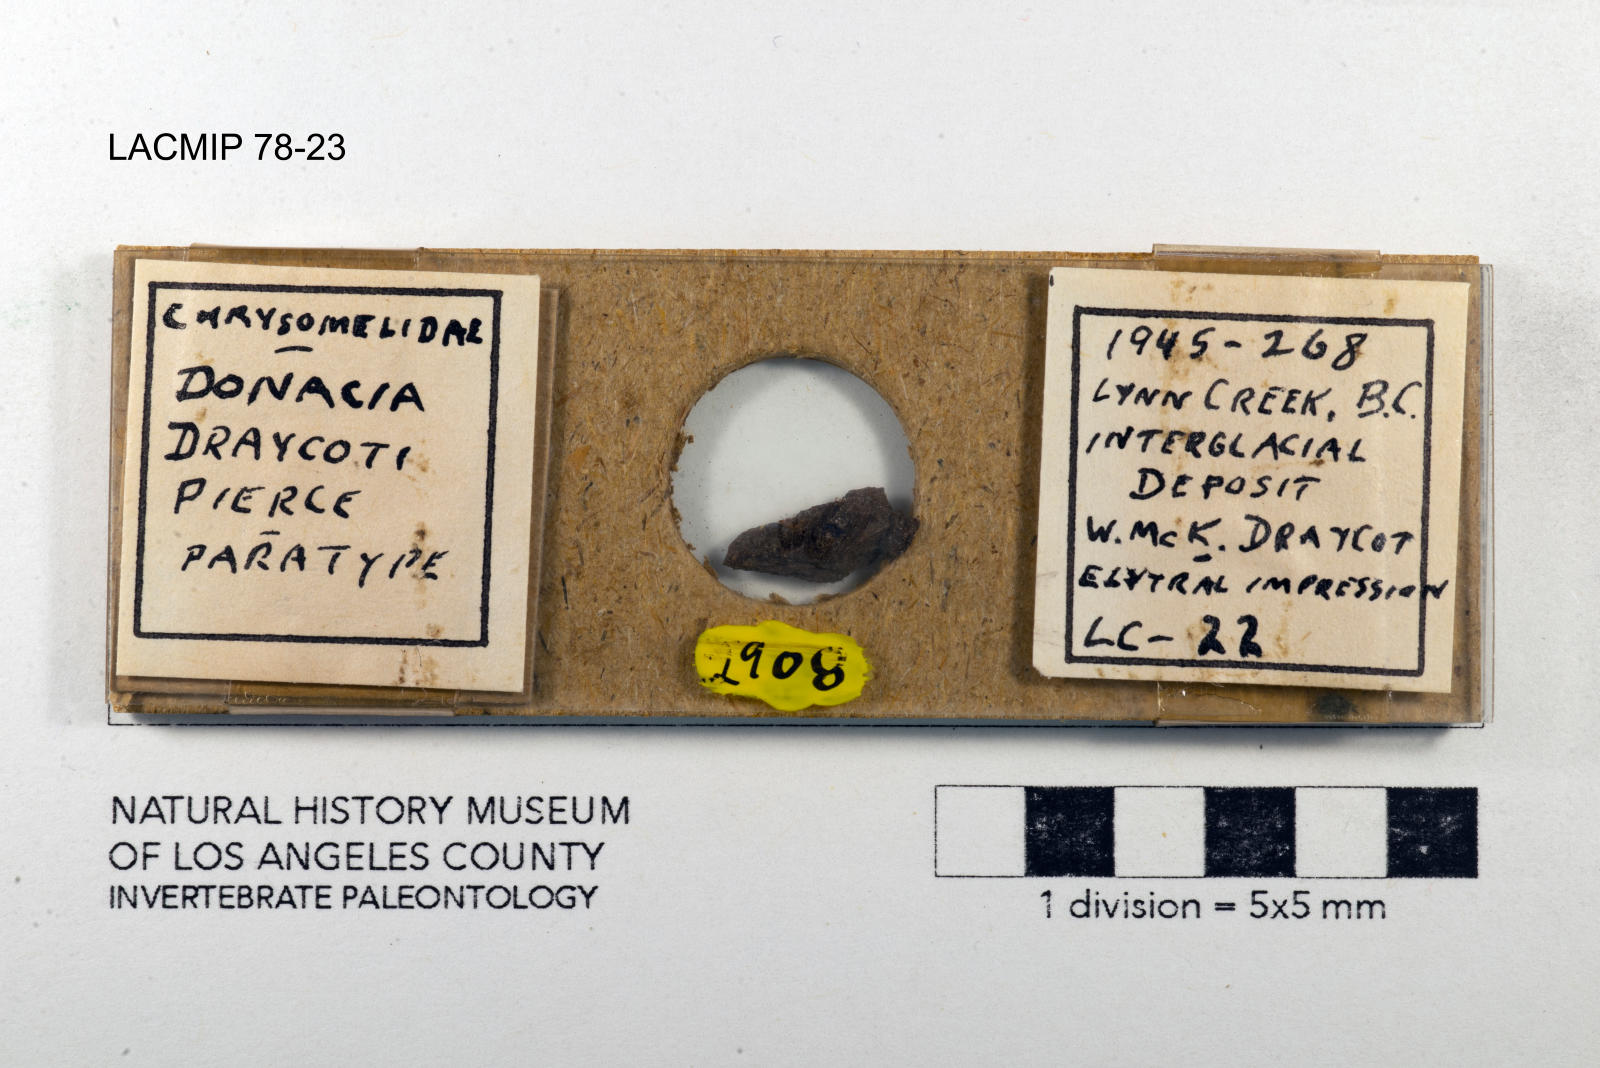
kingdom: Animalia
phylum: Arthropoda
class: Insecta
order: Coleoptera
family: Chrysomelidae
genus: Donacia
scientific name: Donacia draycoti
